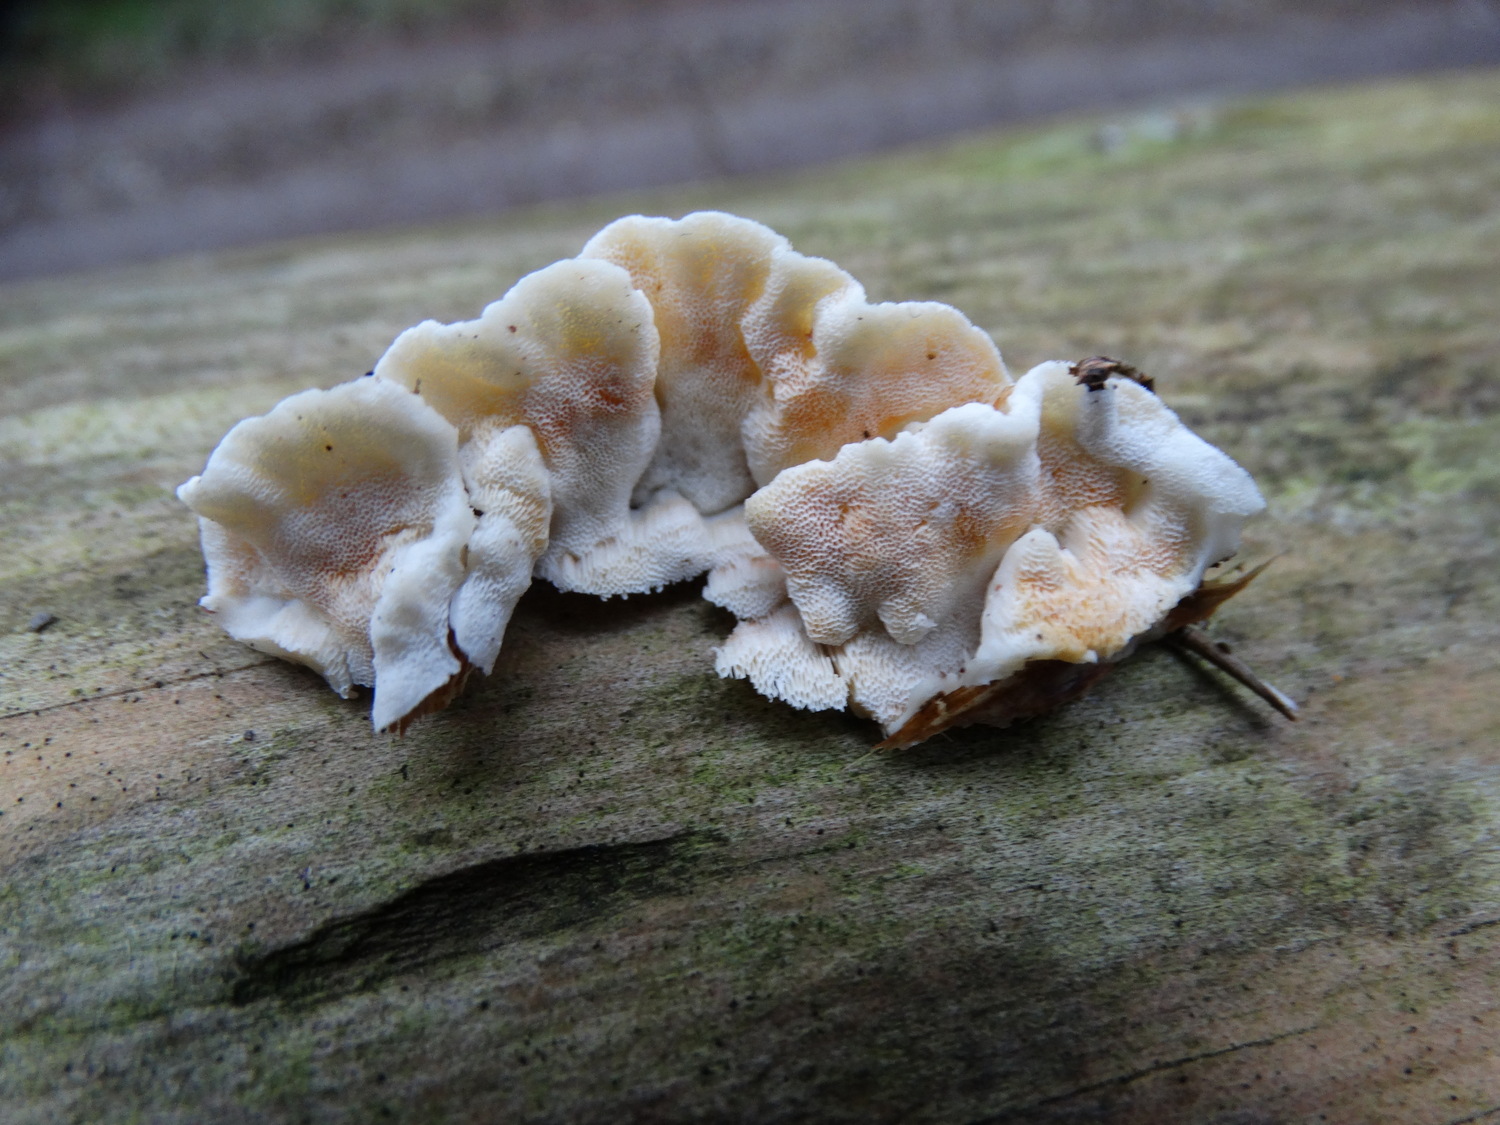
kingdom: Fungi
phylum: Basidiomycota
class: Agaricomycetes
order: Polyporales
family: Incrustoporiaceae
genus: Skeletocutis
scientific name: Skeletocutis amorpha
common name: orange krystalporesvamp
